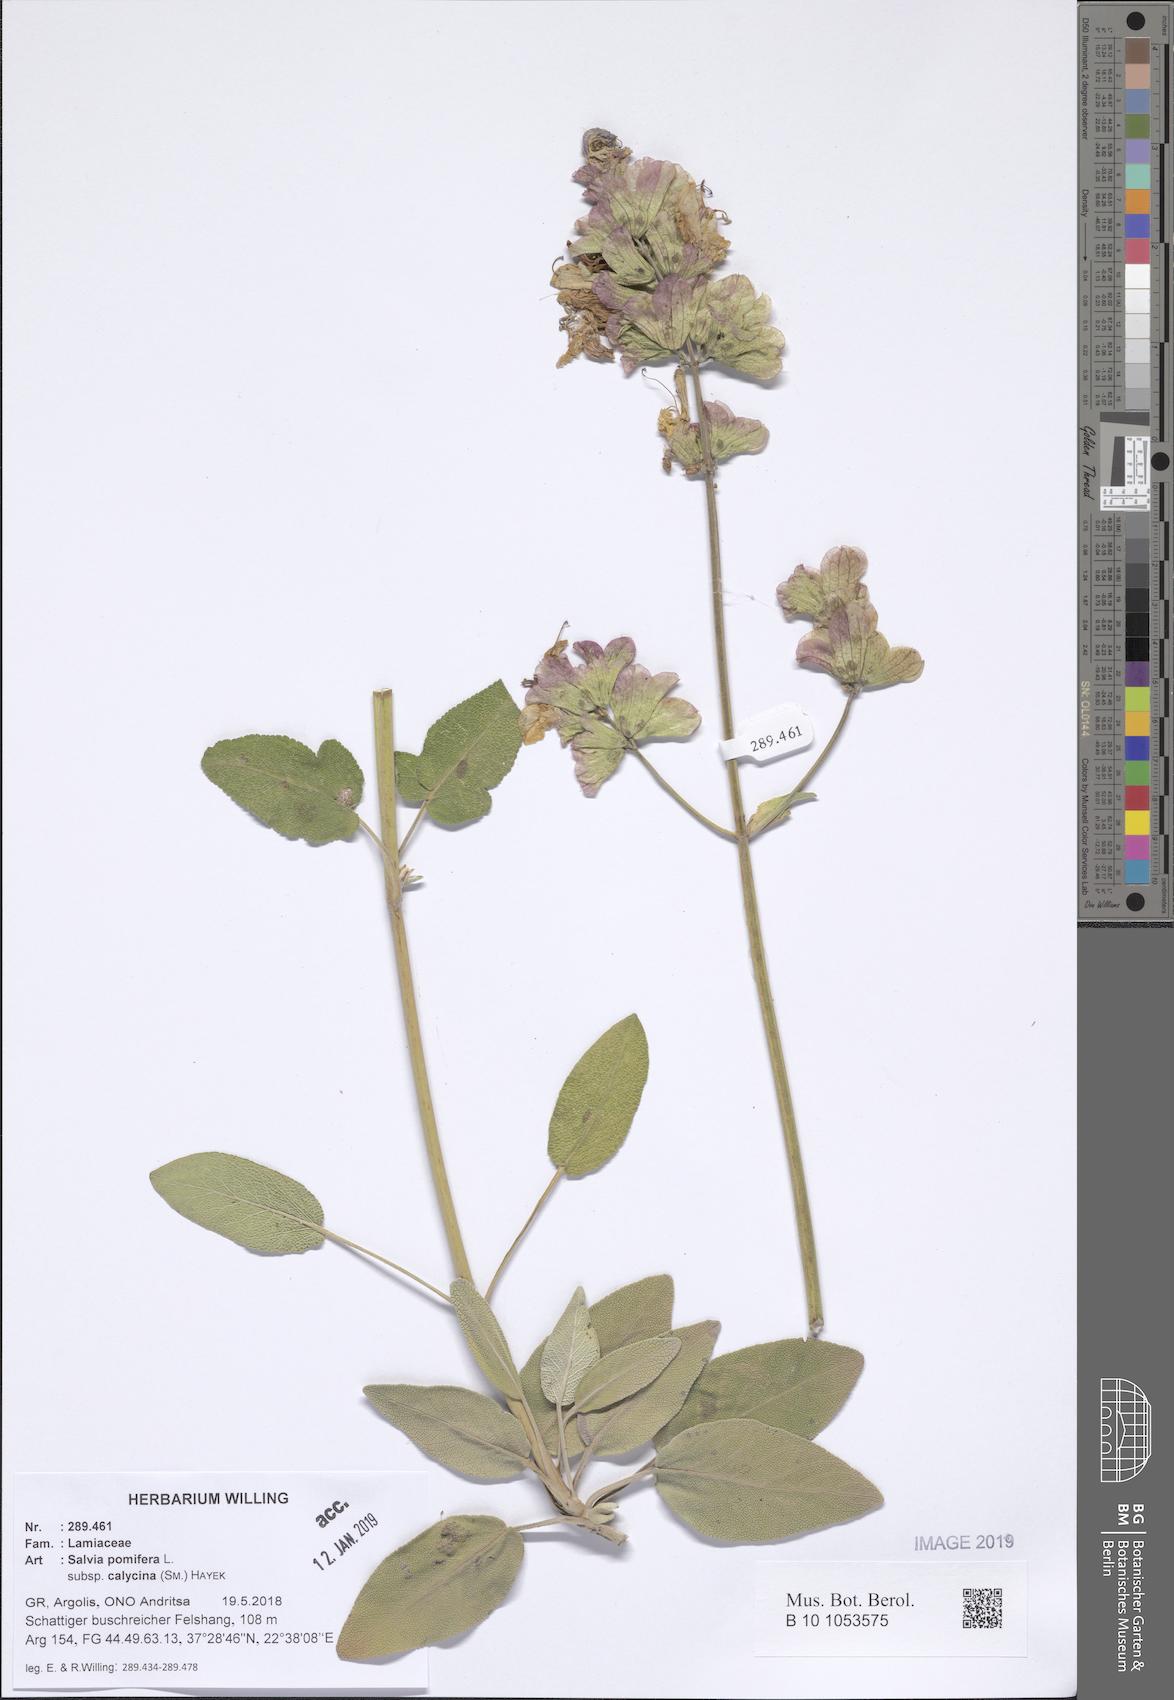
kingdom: Plantae
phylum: Tracheophyta
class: Magnoliopsida
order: Lamiales
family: Lamiaceae
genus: Salvia
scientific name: Salvia pomifera
